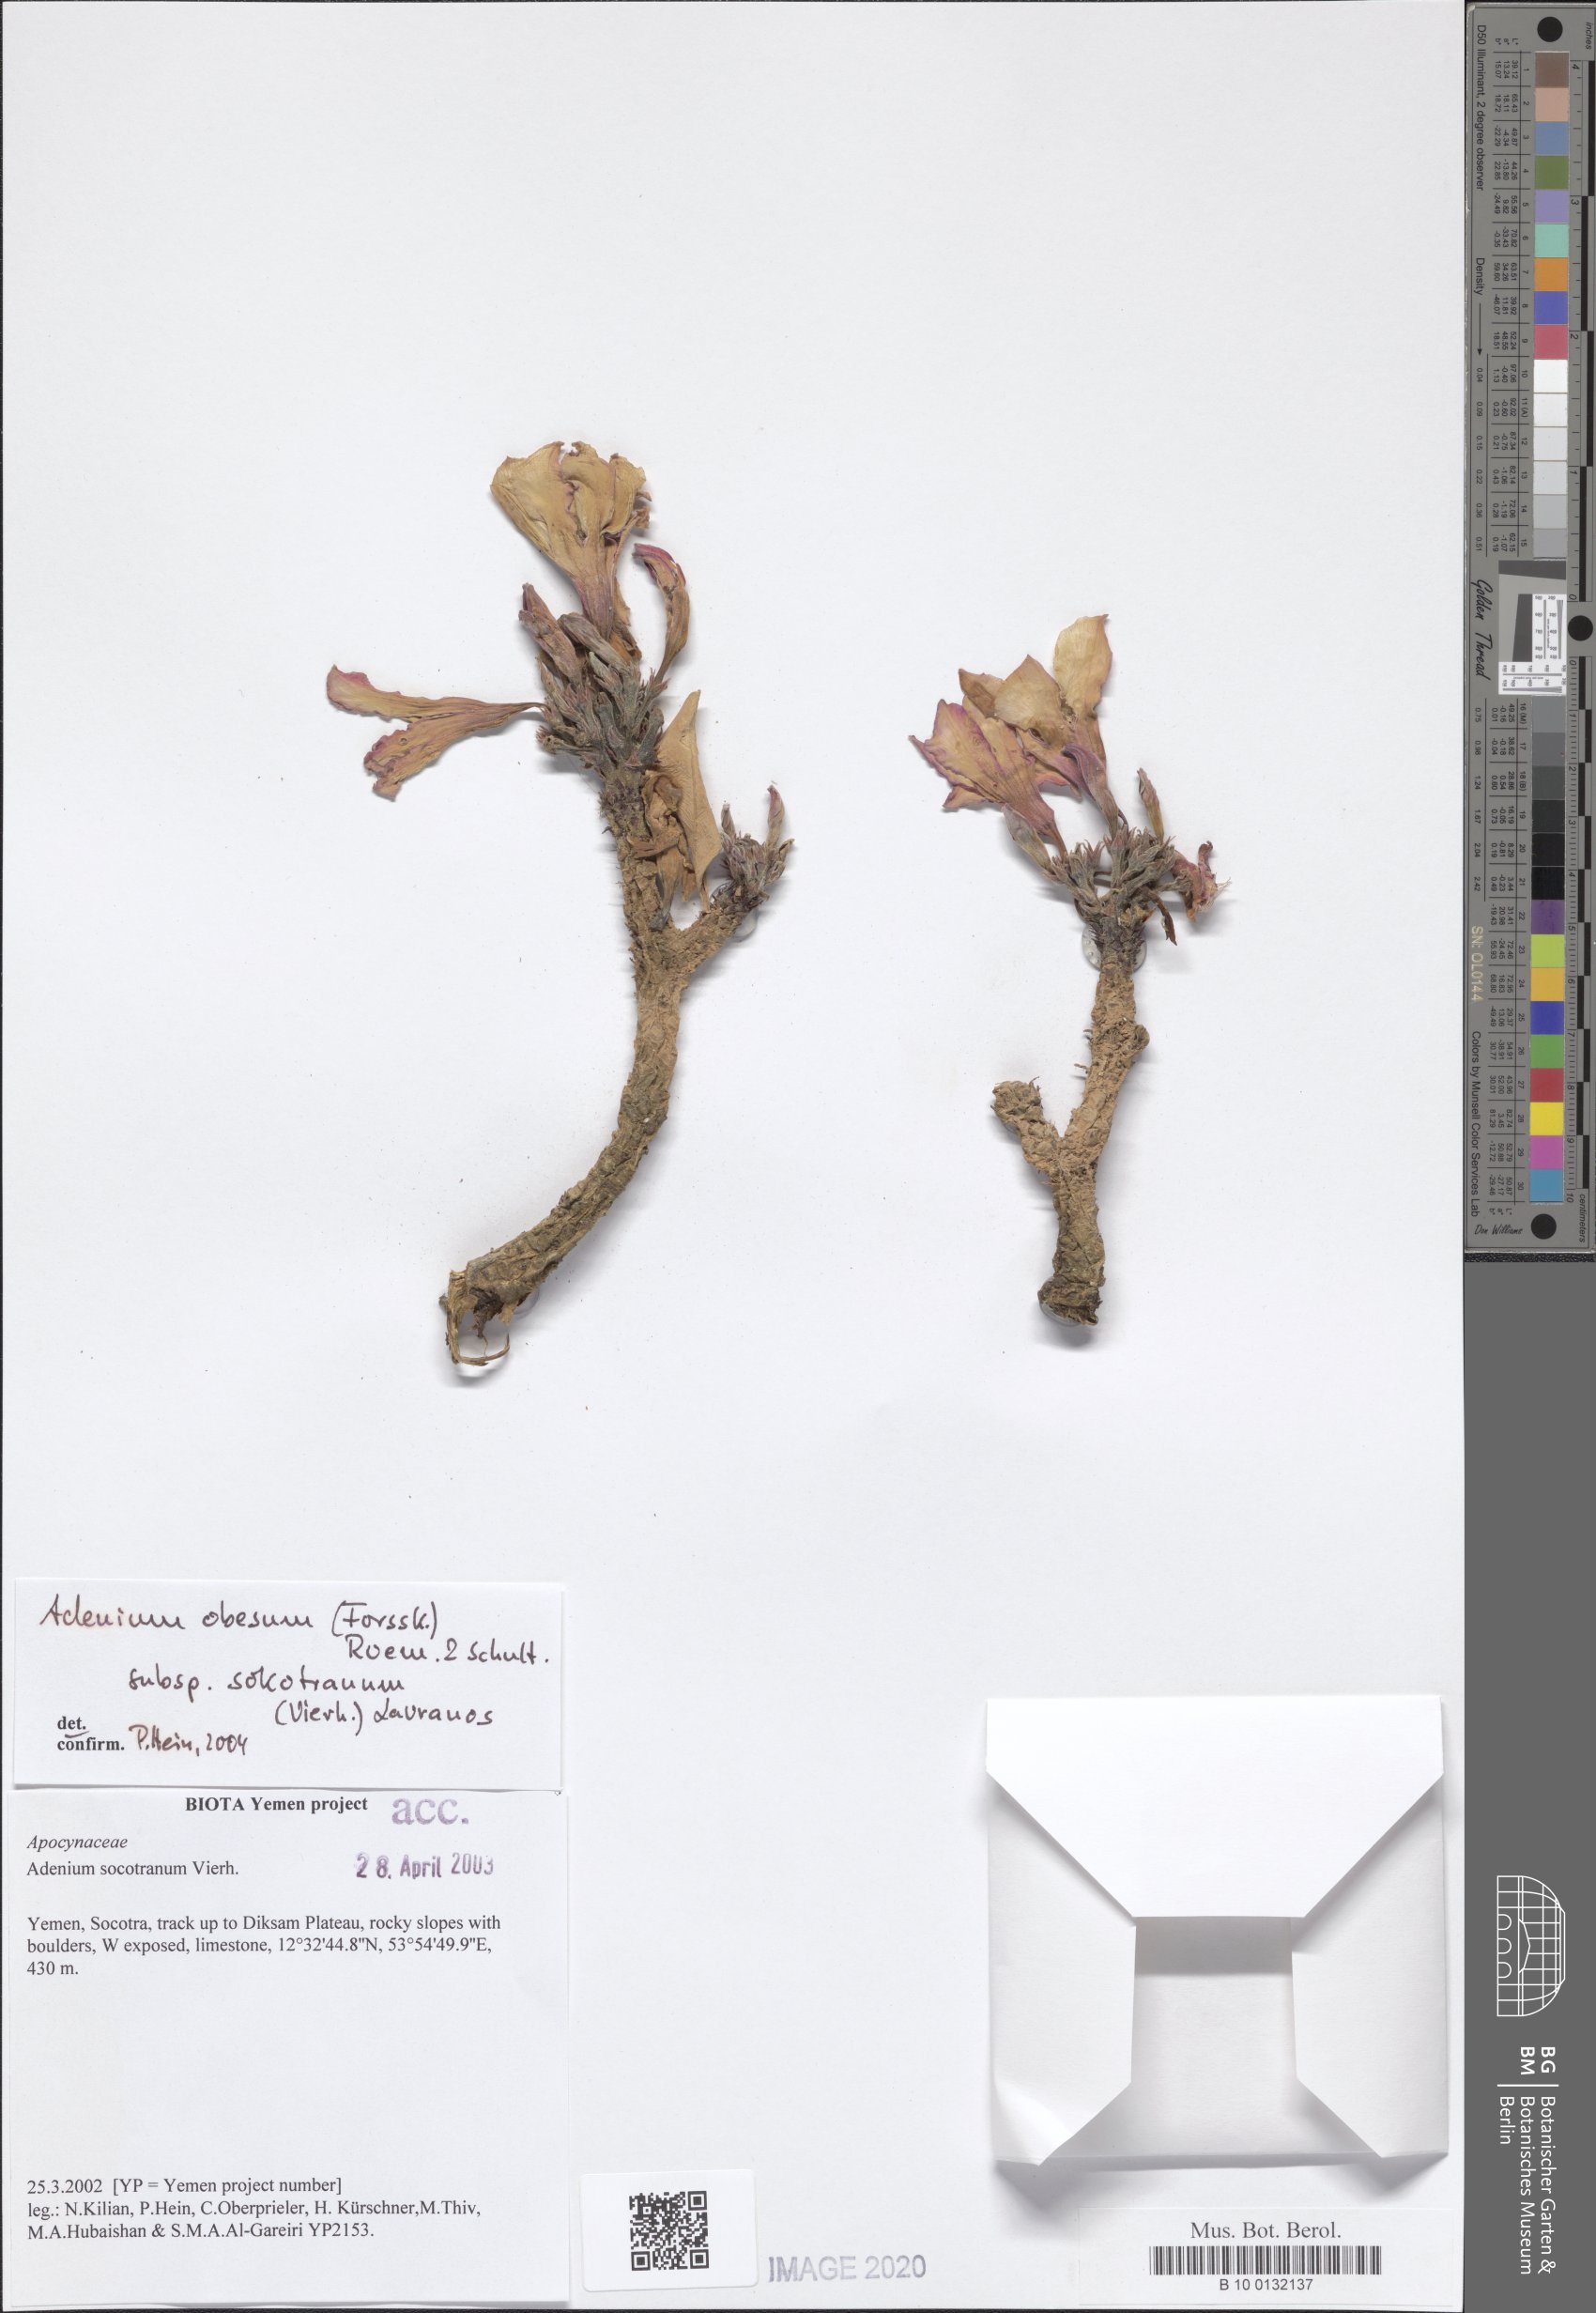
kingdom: Plantae
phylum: Tracheophyta
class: Magnoliopsida
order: Gentianales
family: Apocynaceae
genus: Adenium
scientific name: Adenium obesum
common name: Desert-rose
